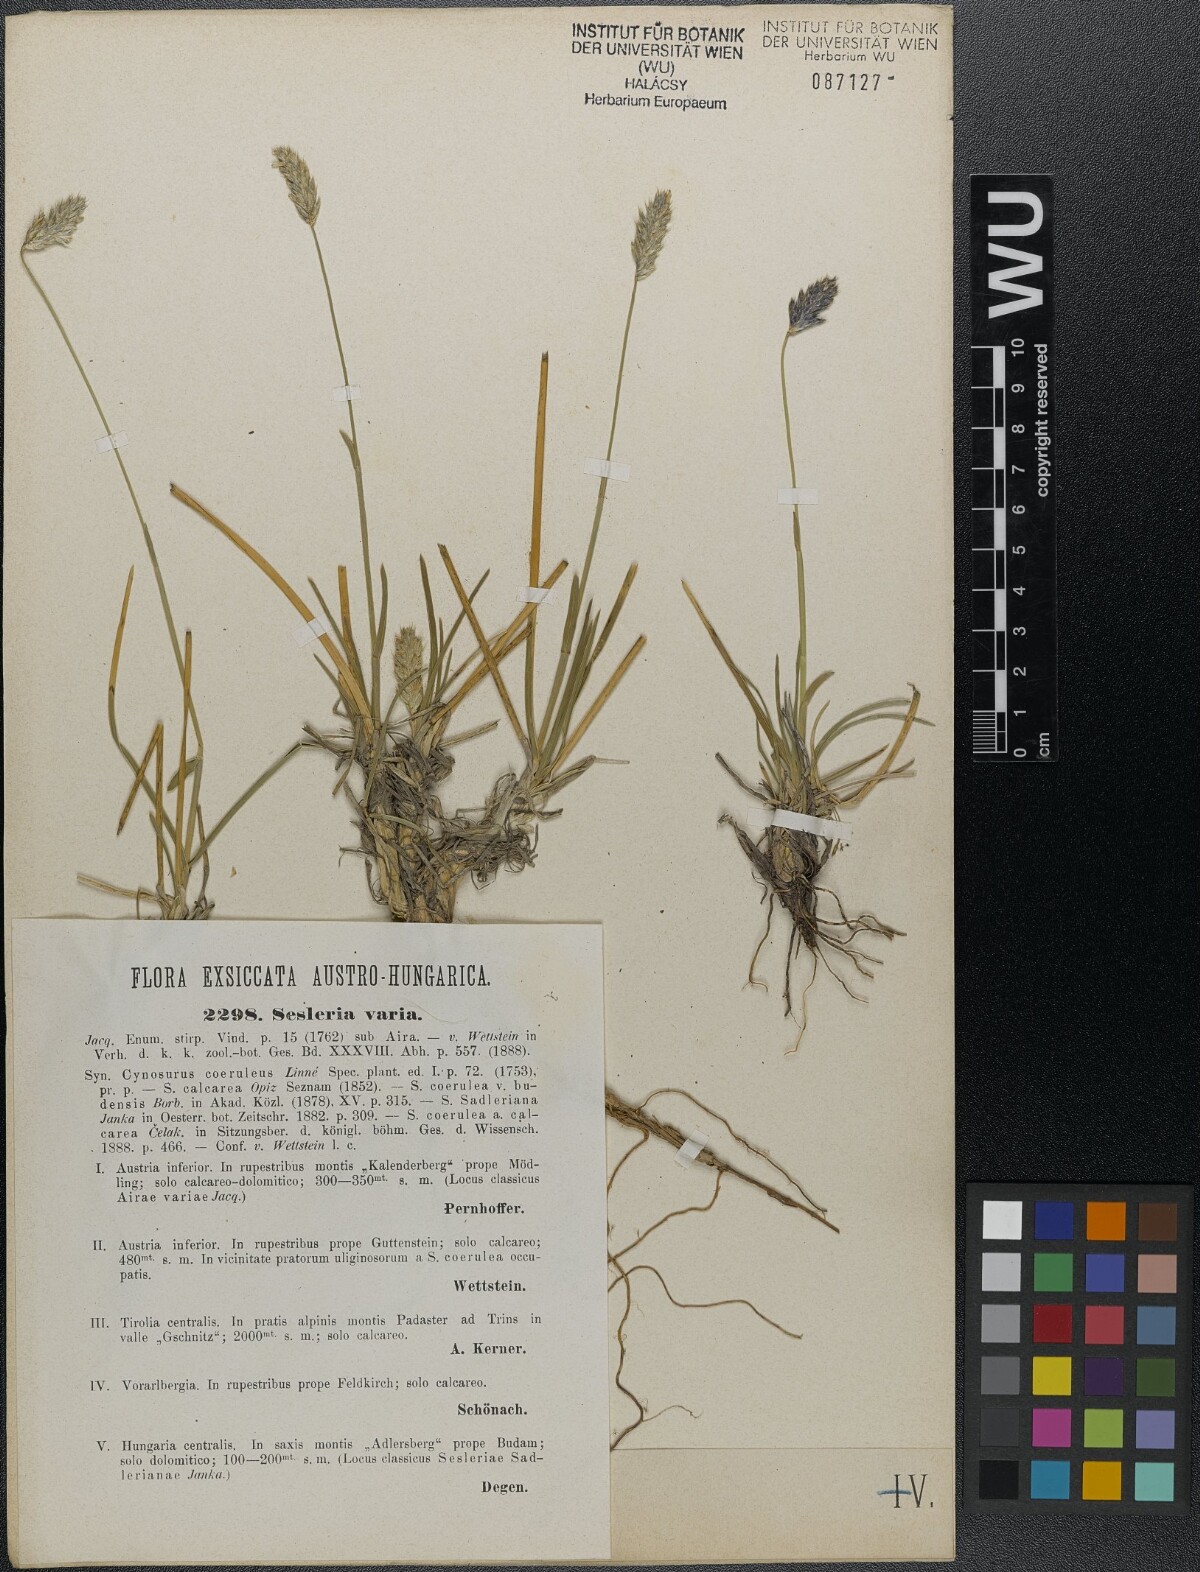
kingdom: Plantae
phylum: Tracheophyta
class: Liliopsida
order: Poales
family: Poaceae
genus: Sesleria
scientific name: Sesleria sadleriana
